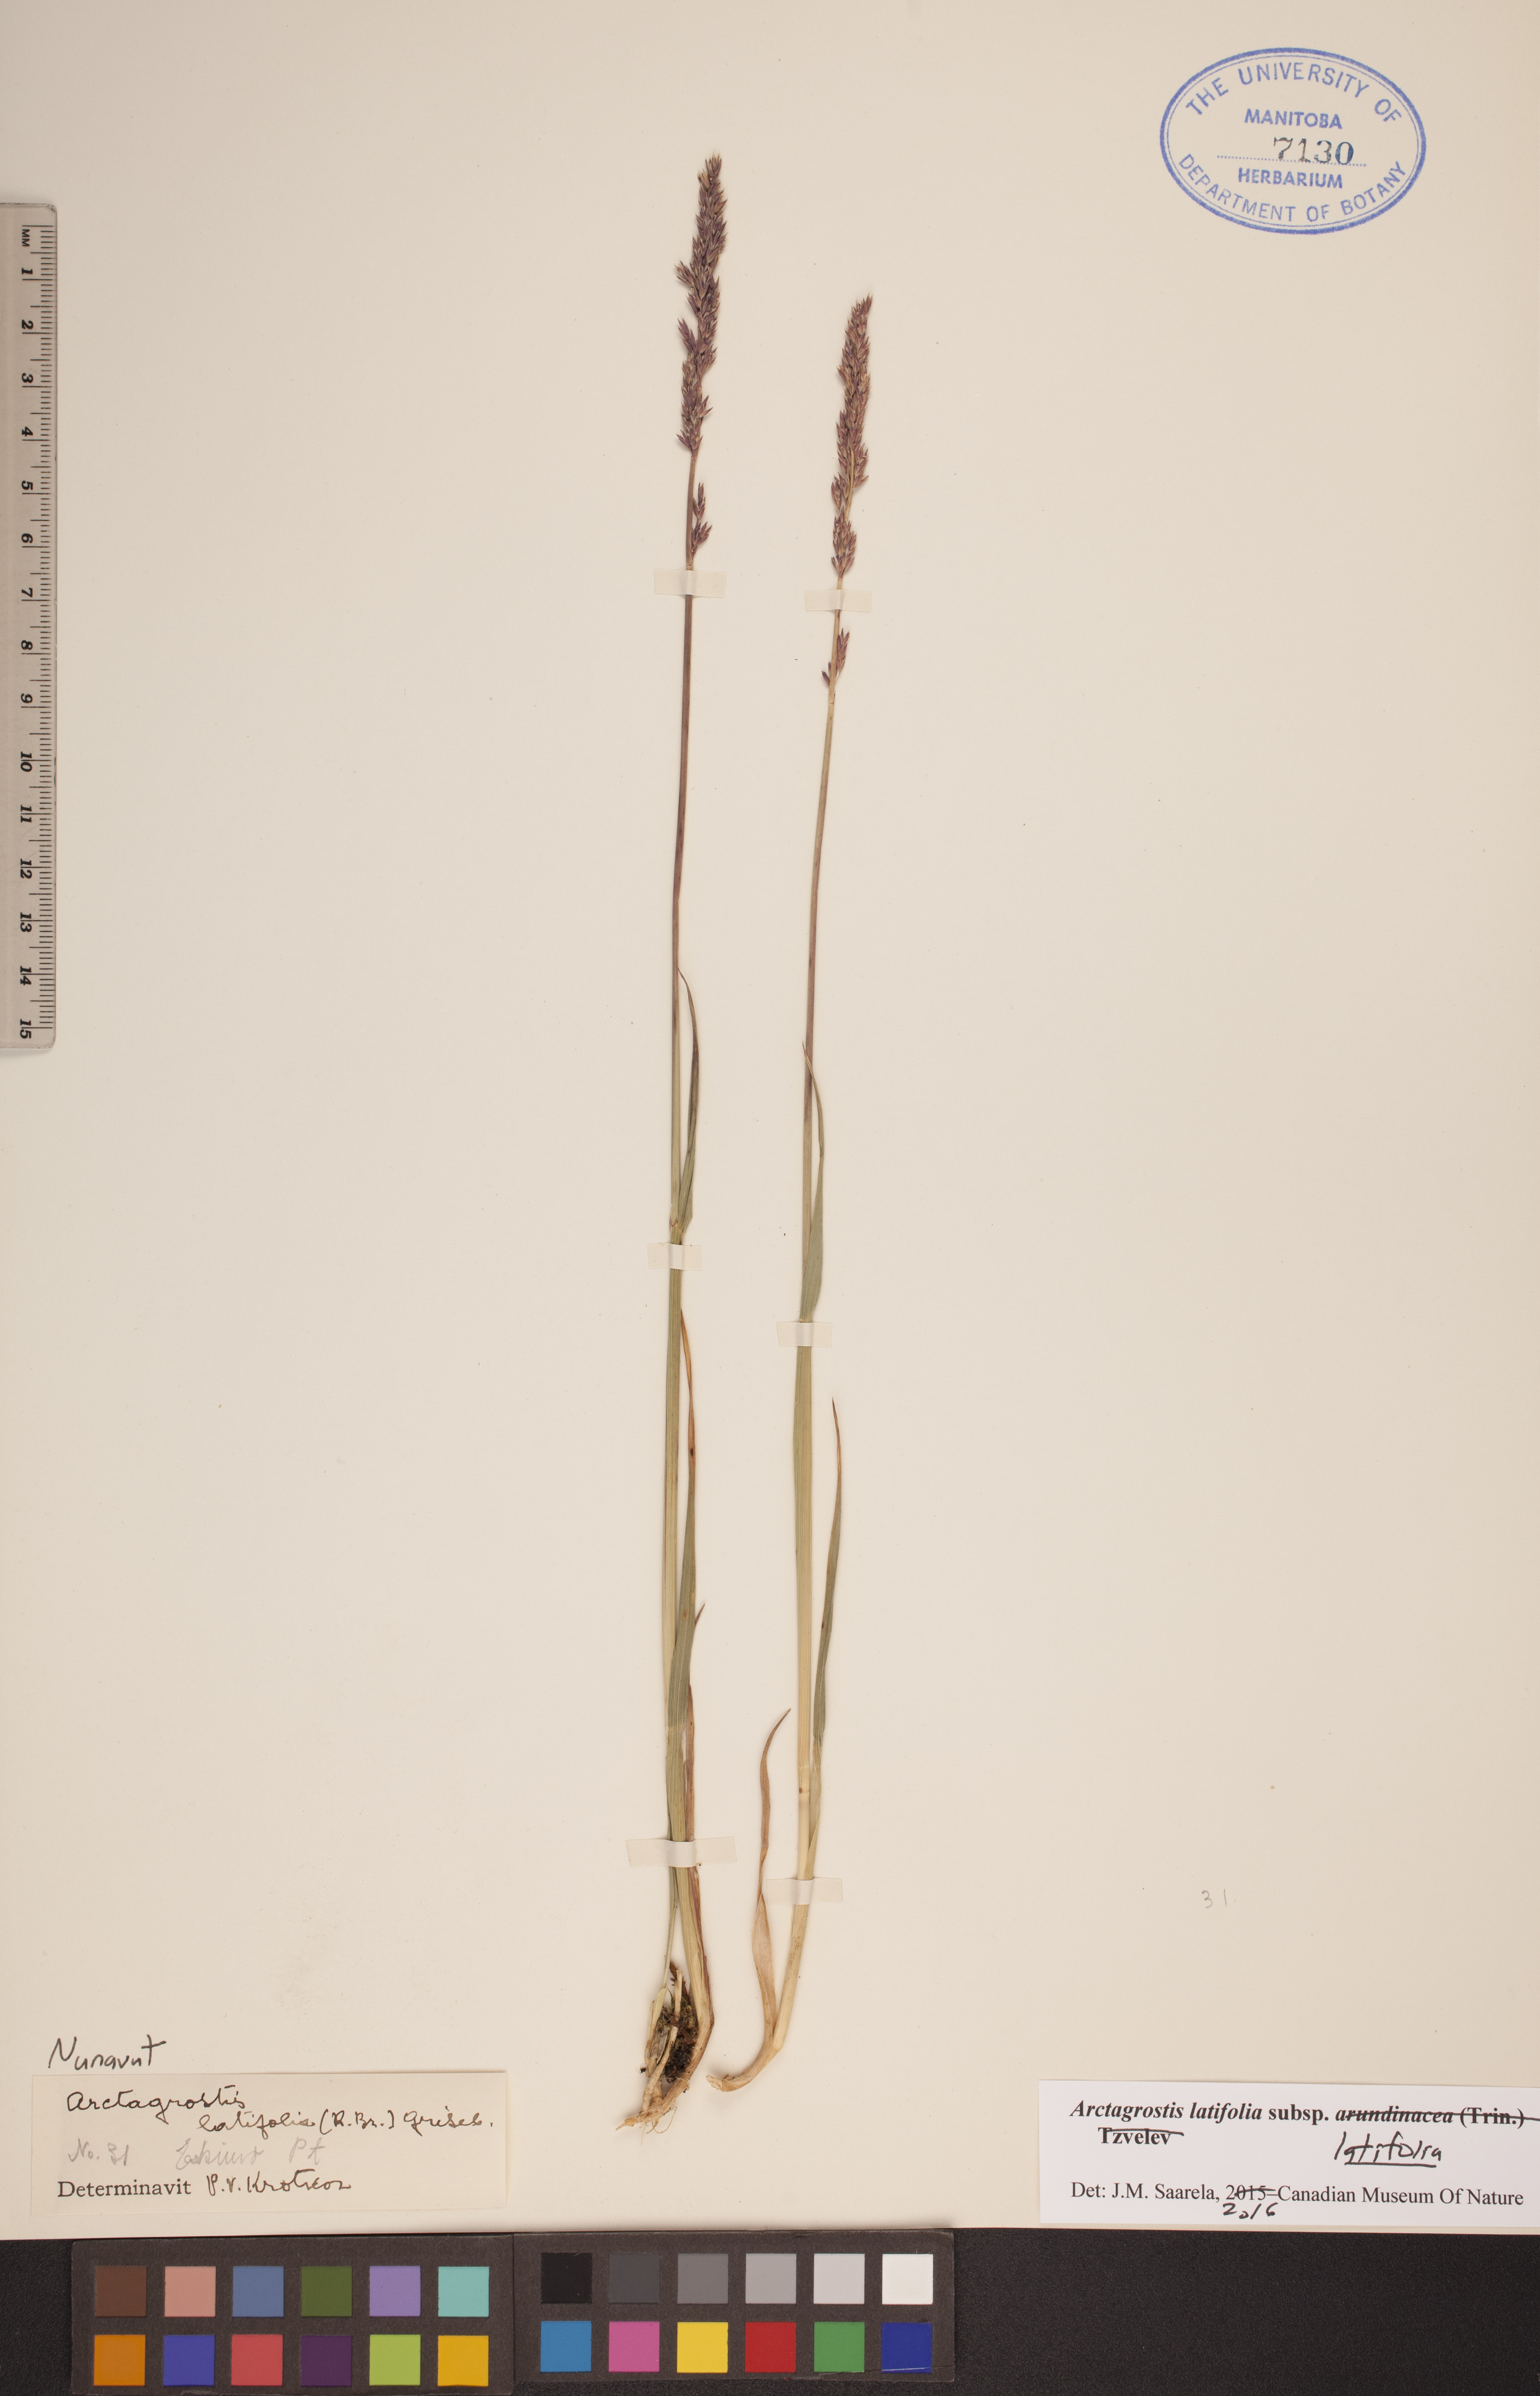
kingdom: Plantae
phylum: Tracheophyta
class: Liliopsida
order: Poales
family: Poaceae
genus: Arctagrostis
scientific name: Arctagrostis latifolia
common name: Arctic grass
